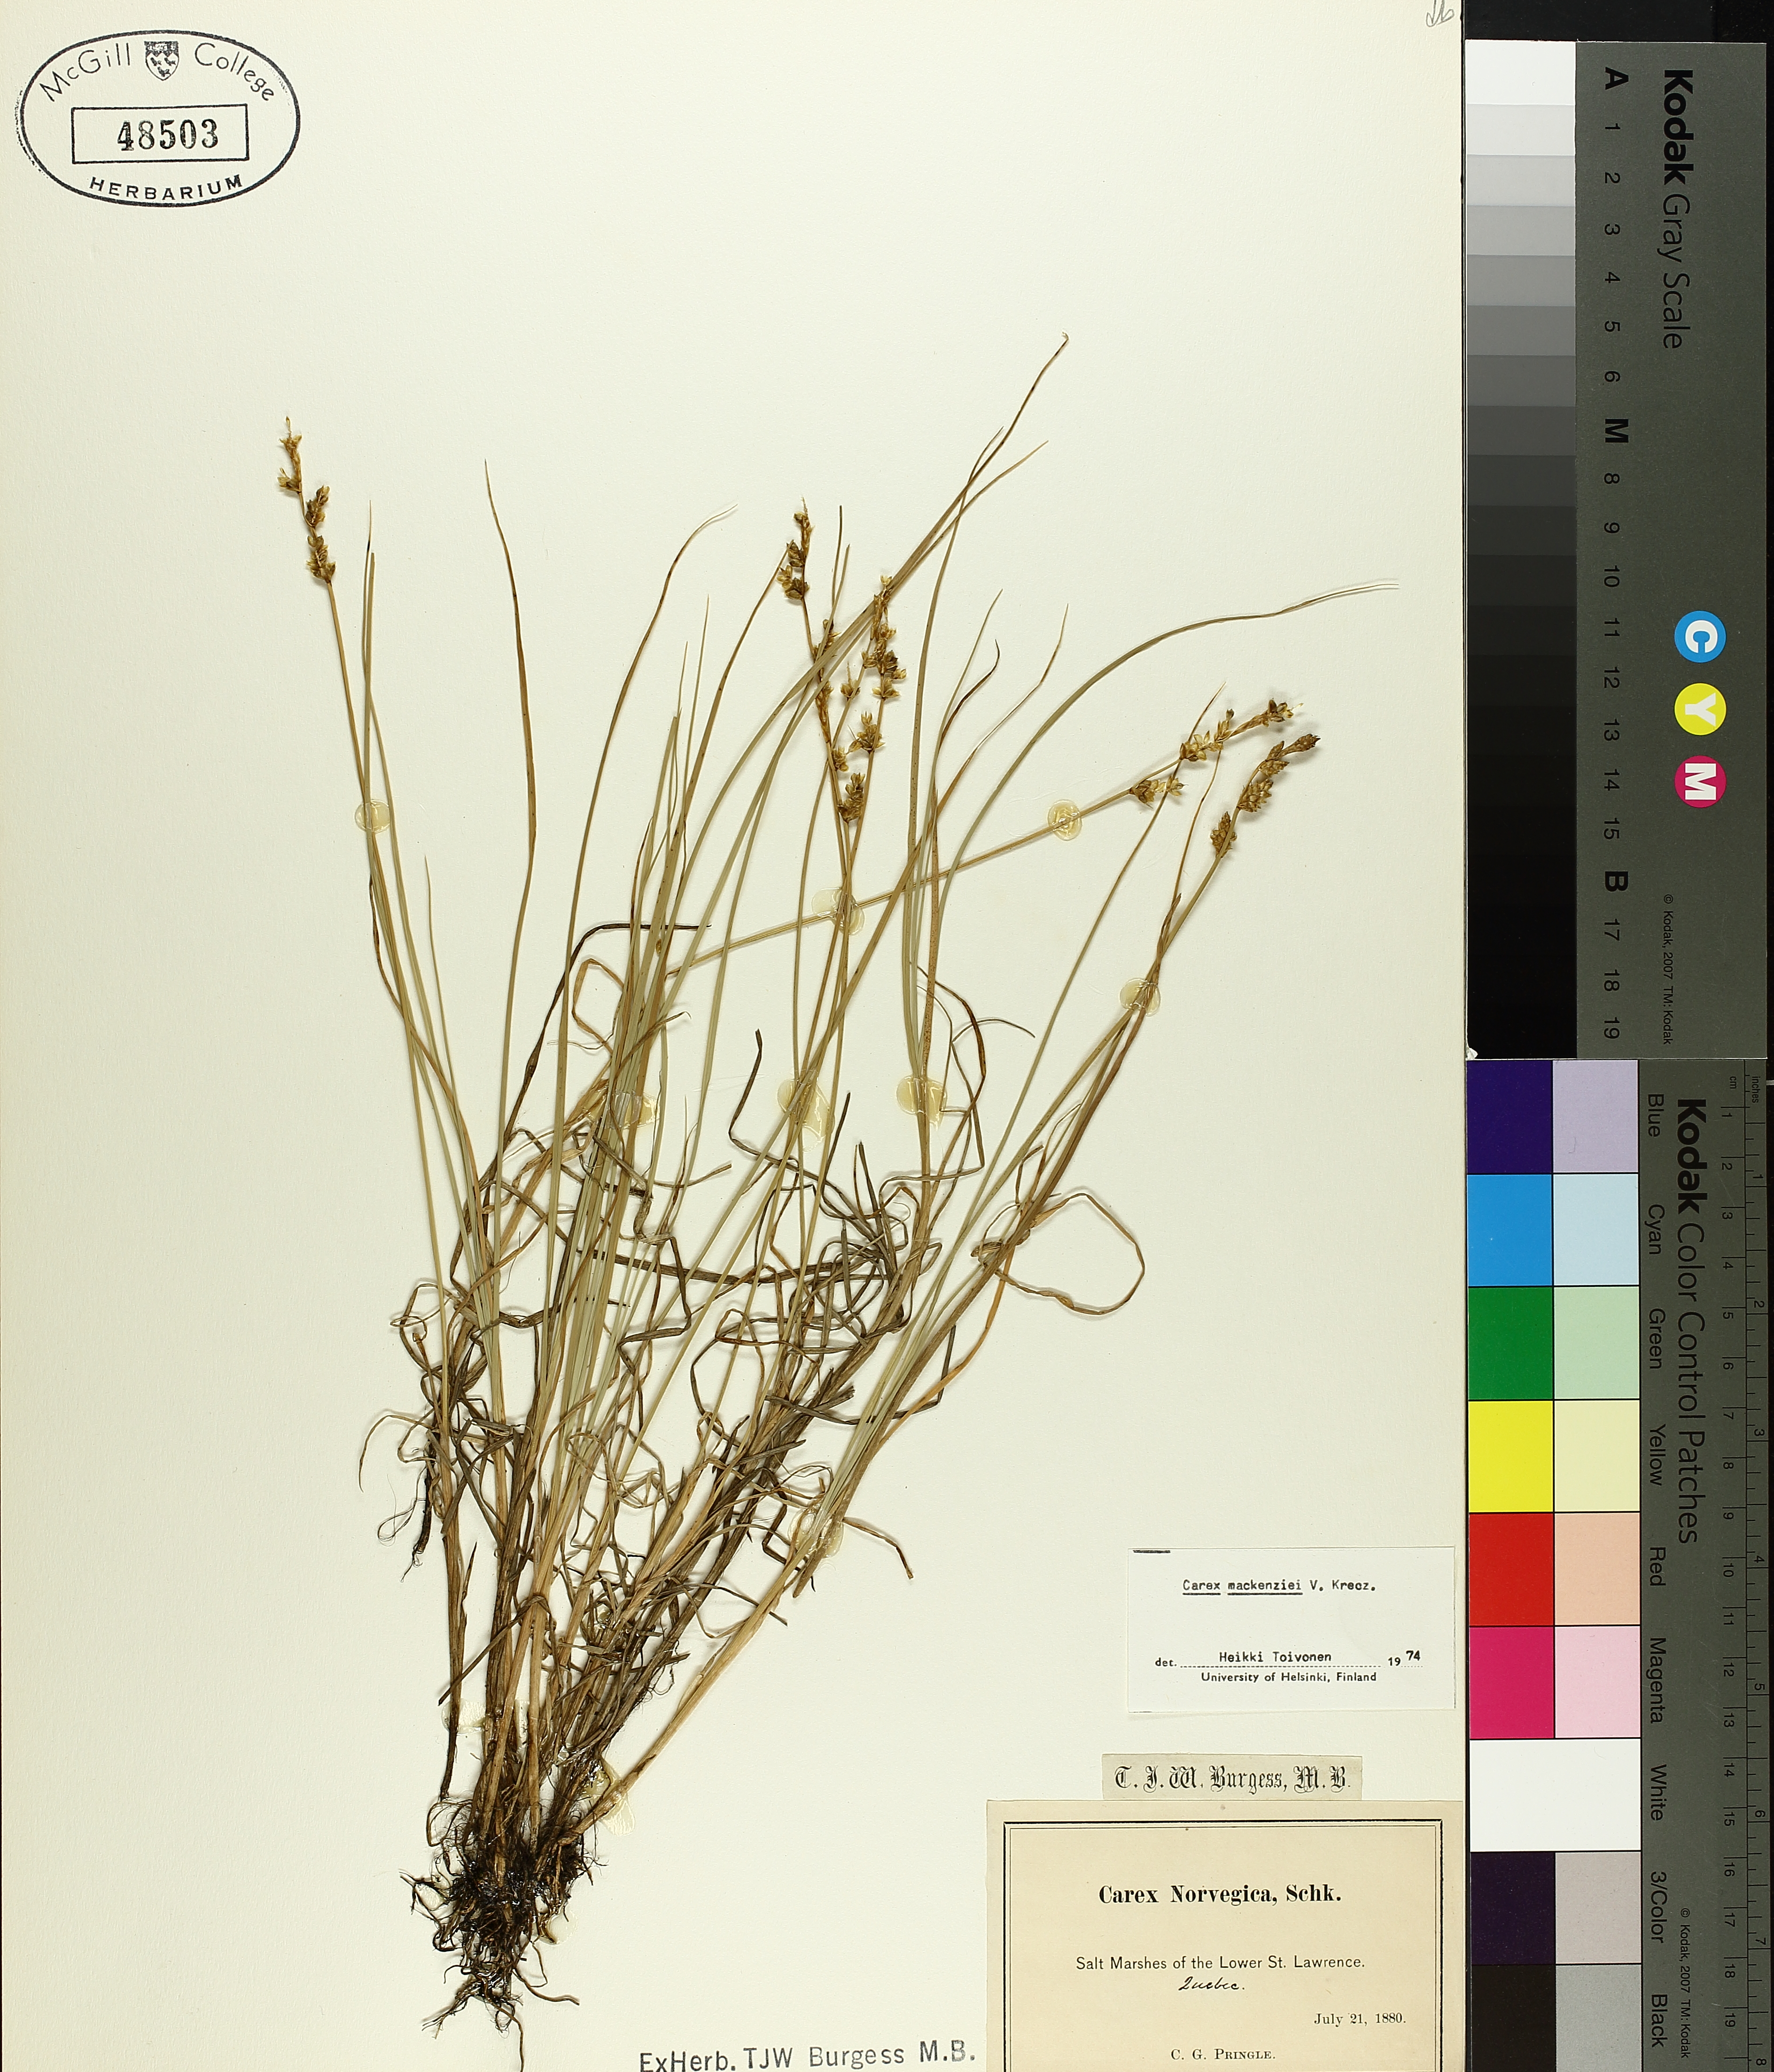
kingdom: Plantae
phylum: Tracheophyta
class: Liliopsida
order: Poales
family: Cyperaceae
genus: Carex
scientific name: Carex mackenziei
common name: Mackenzie's sedge
